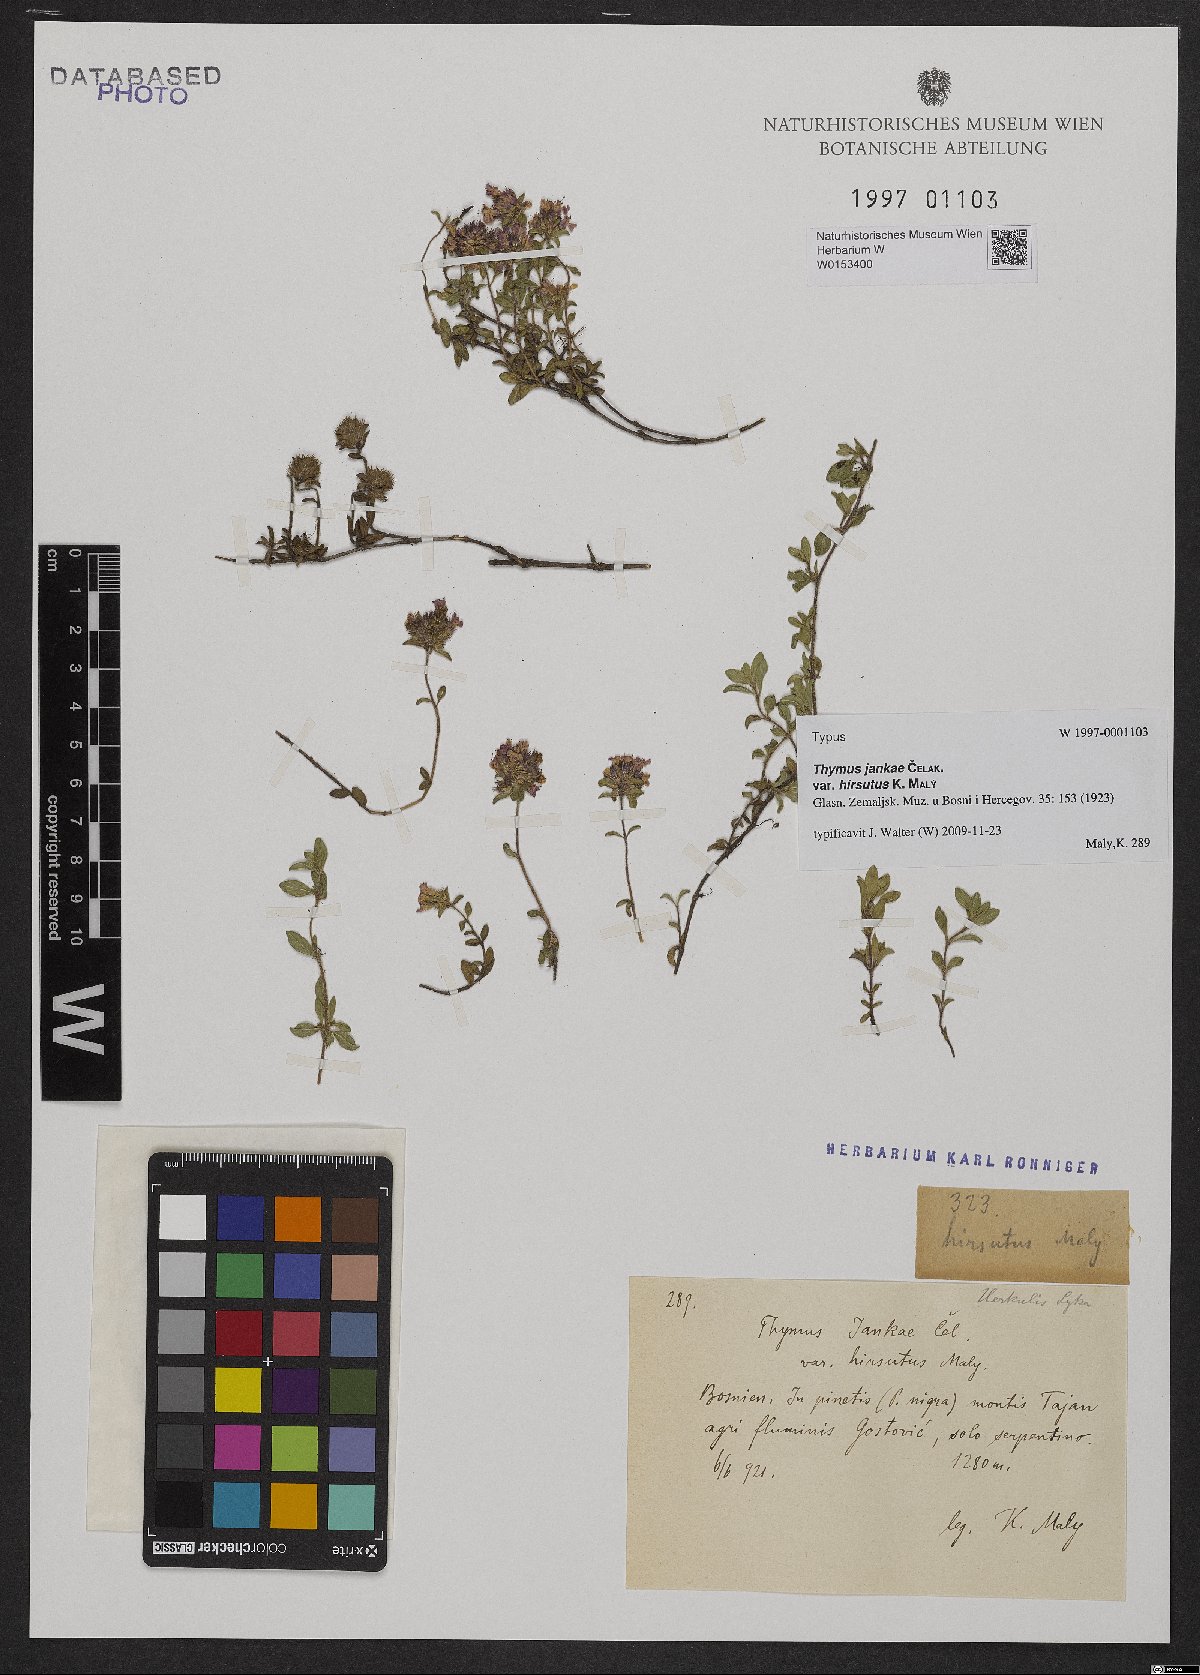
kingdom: Plantae
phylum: Tracheophyta
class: Magnoliopsida
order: Lamiales
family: Lamiaceae
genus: Thymus
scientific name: Thymus jankae
